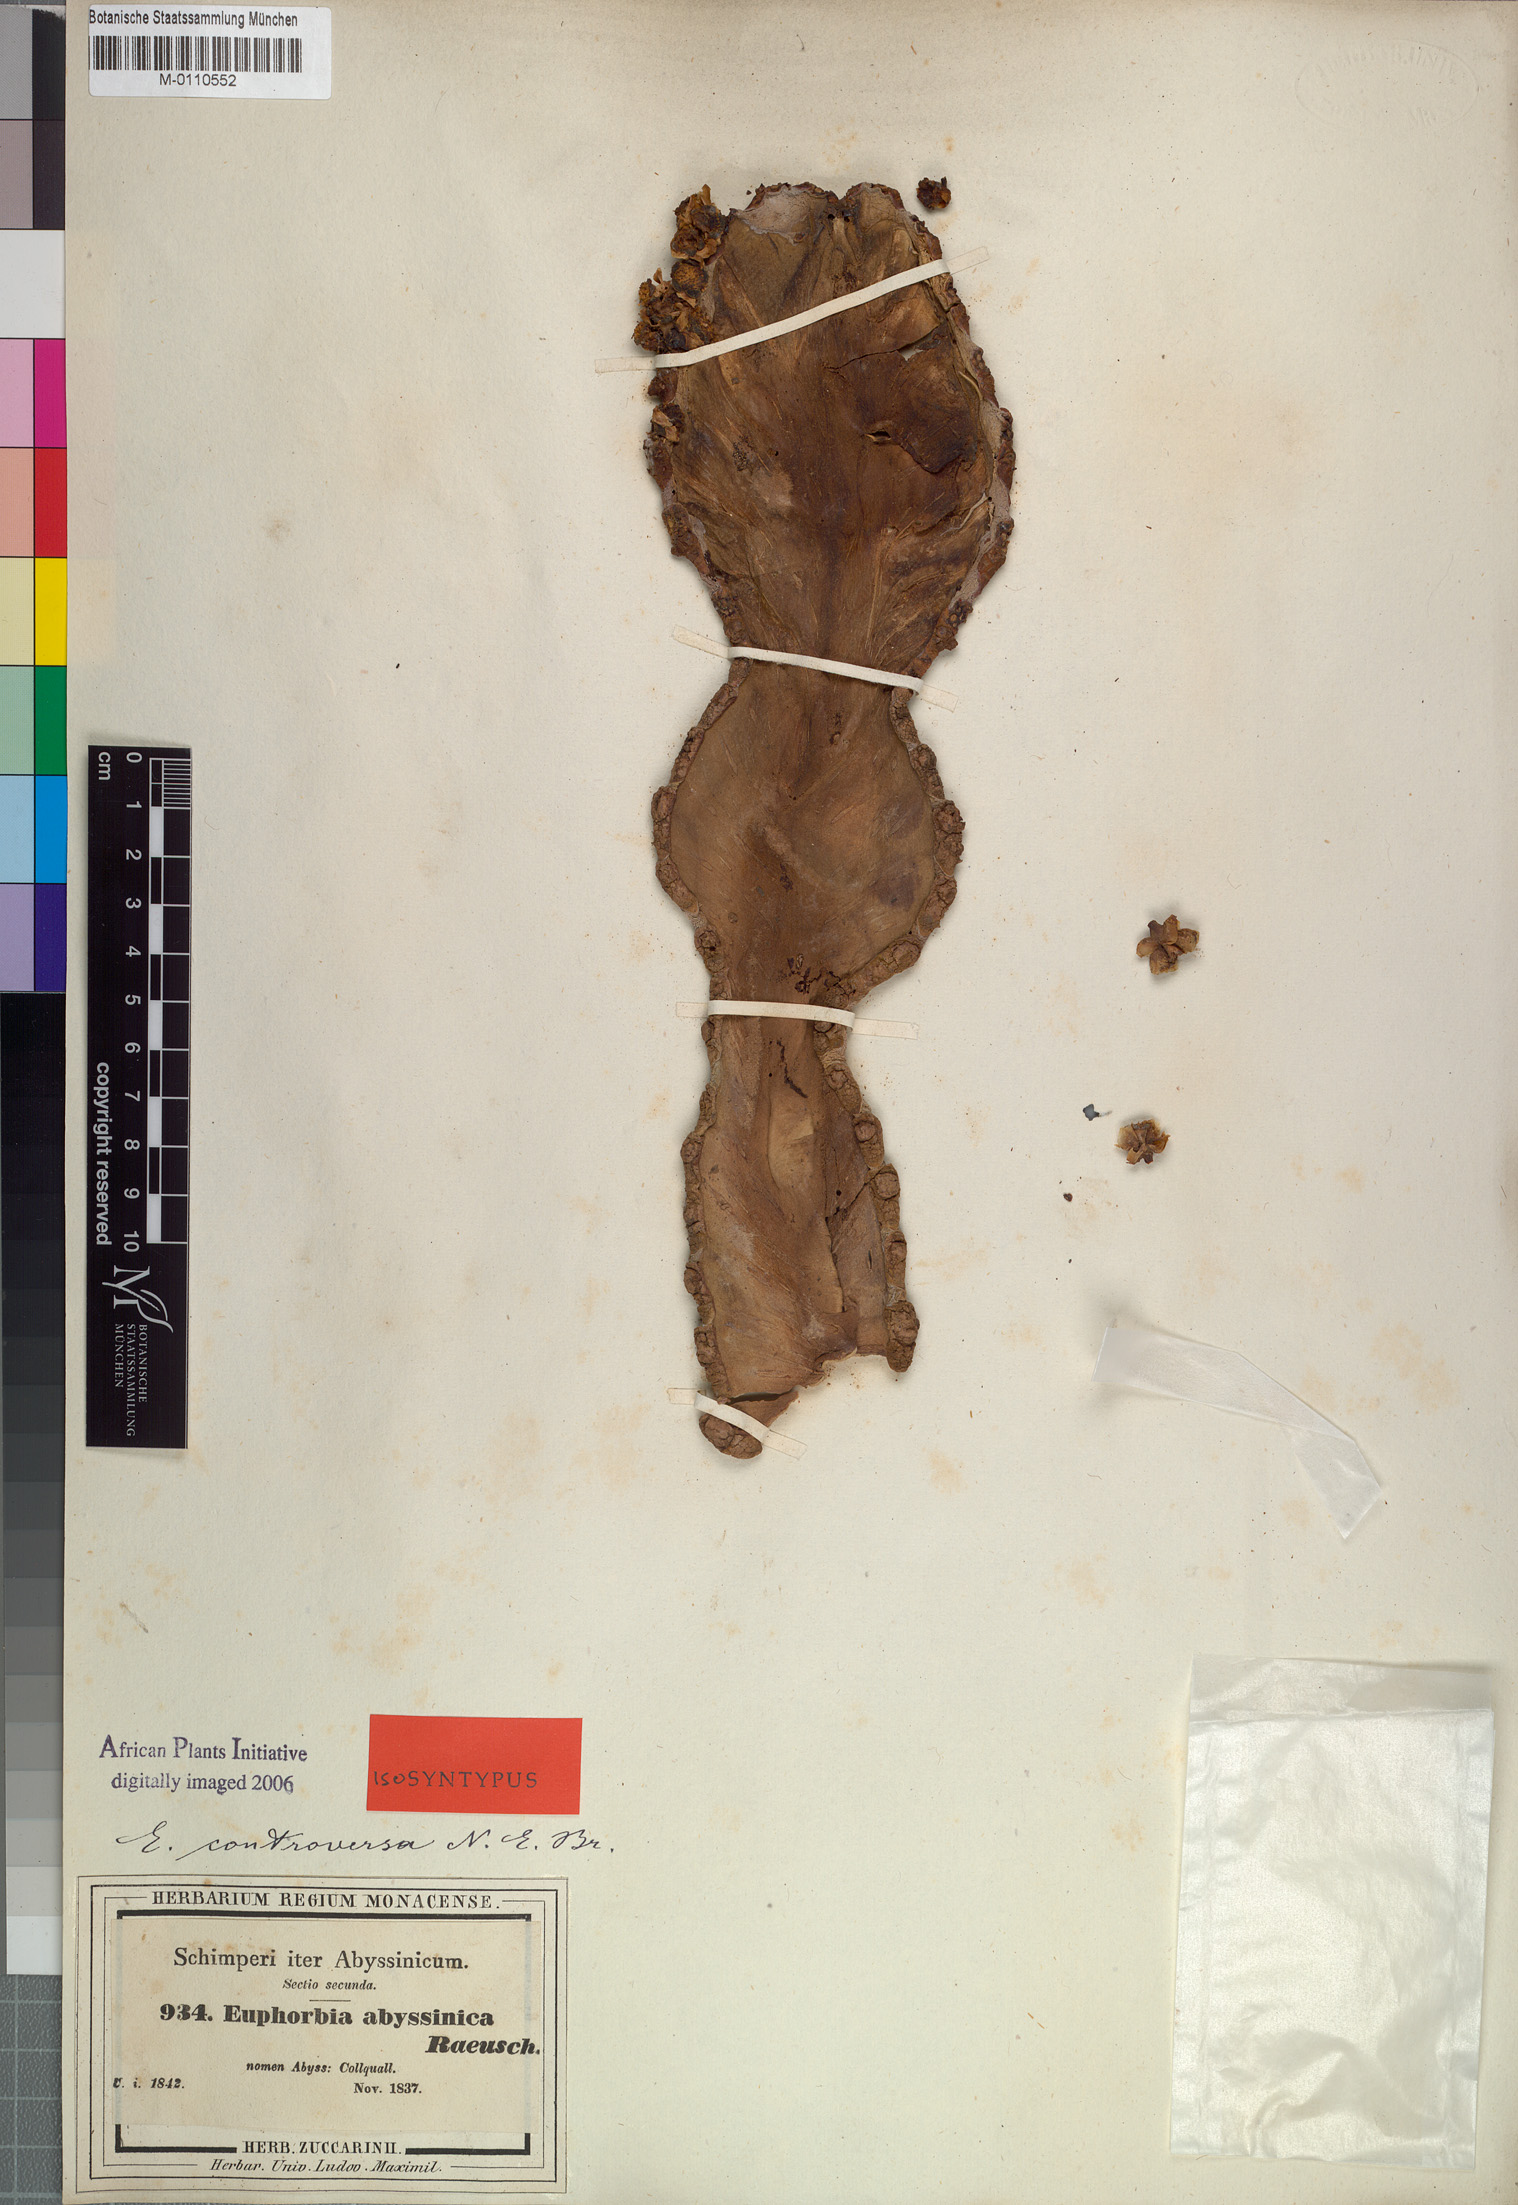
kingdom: Plantae
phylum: Tracheophyta
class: Magnoliopsida
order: Malpighiales
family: Euphorbiaceae
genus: Euphorbia
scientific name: Euphorbia abyssinica
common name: Abyssinian spurge
